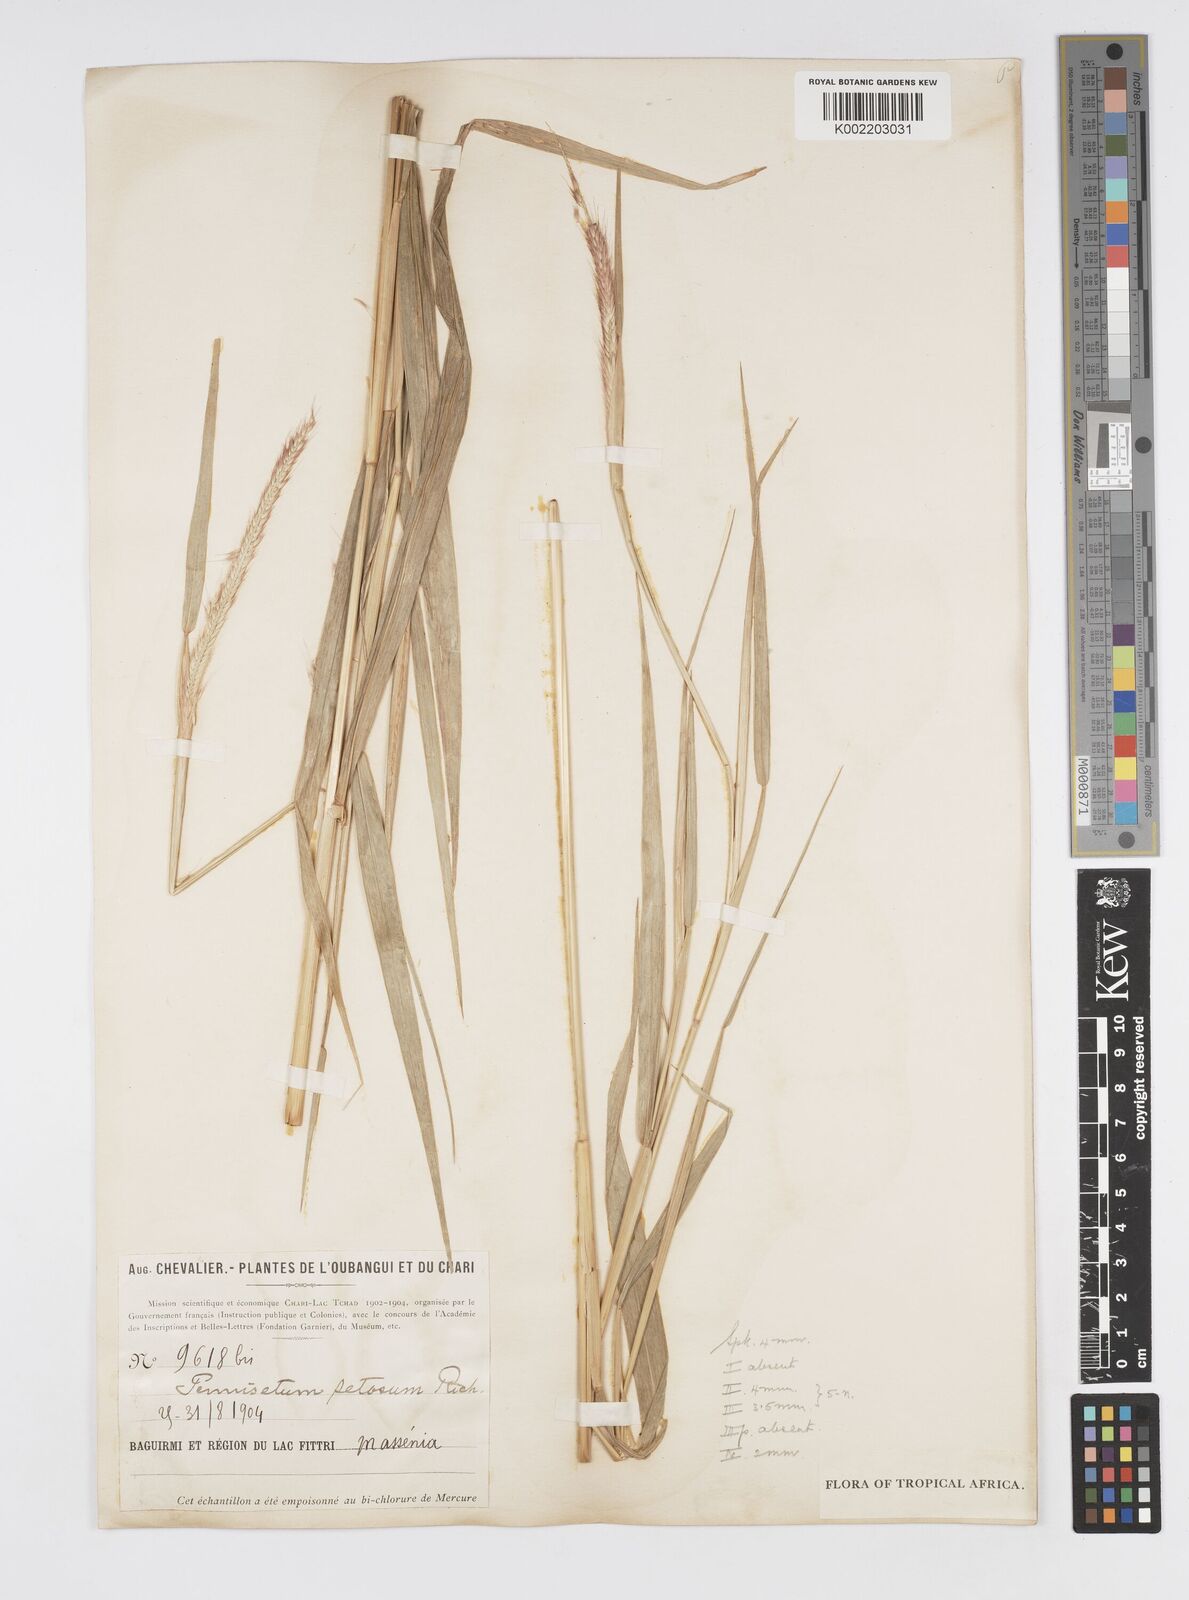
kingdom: Plantae
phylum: Tracheophyta
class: Liliopsida
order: Poales
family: Poaceae
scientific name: Poaceae
